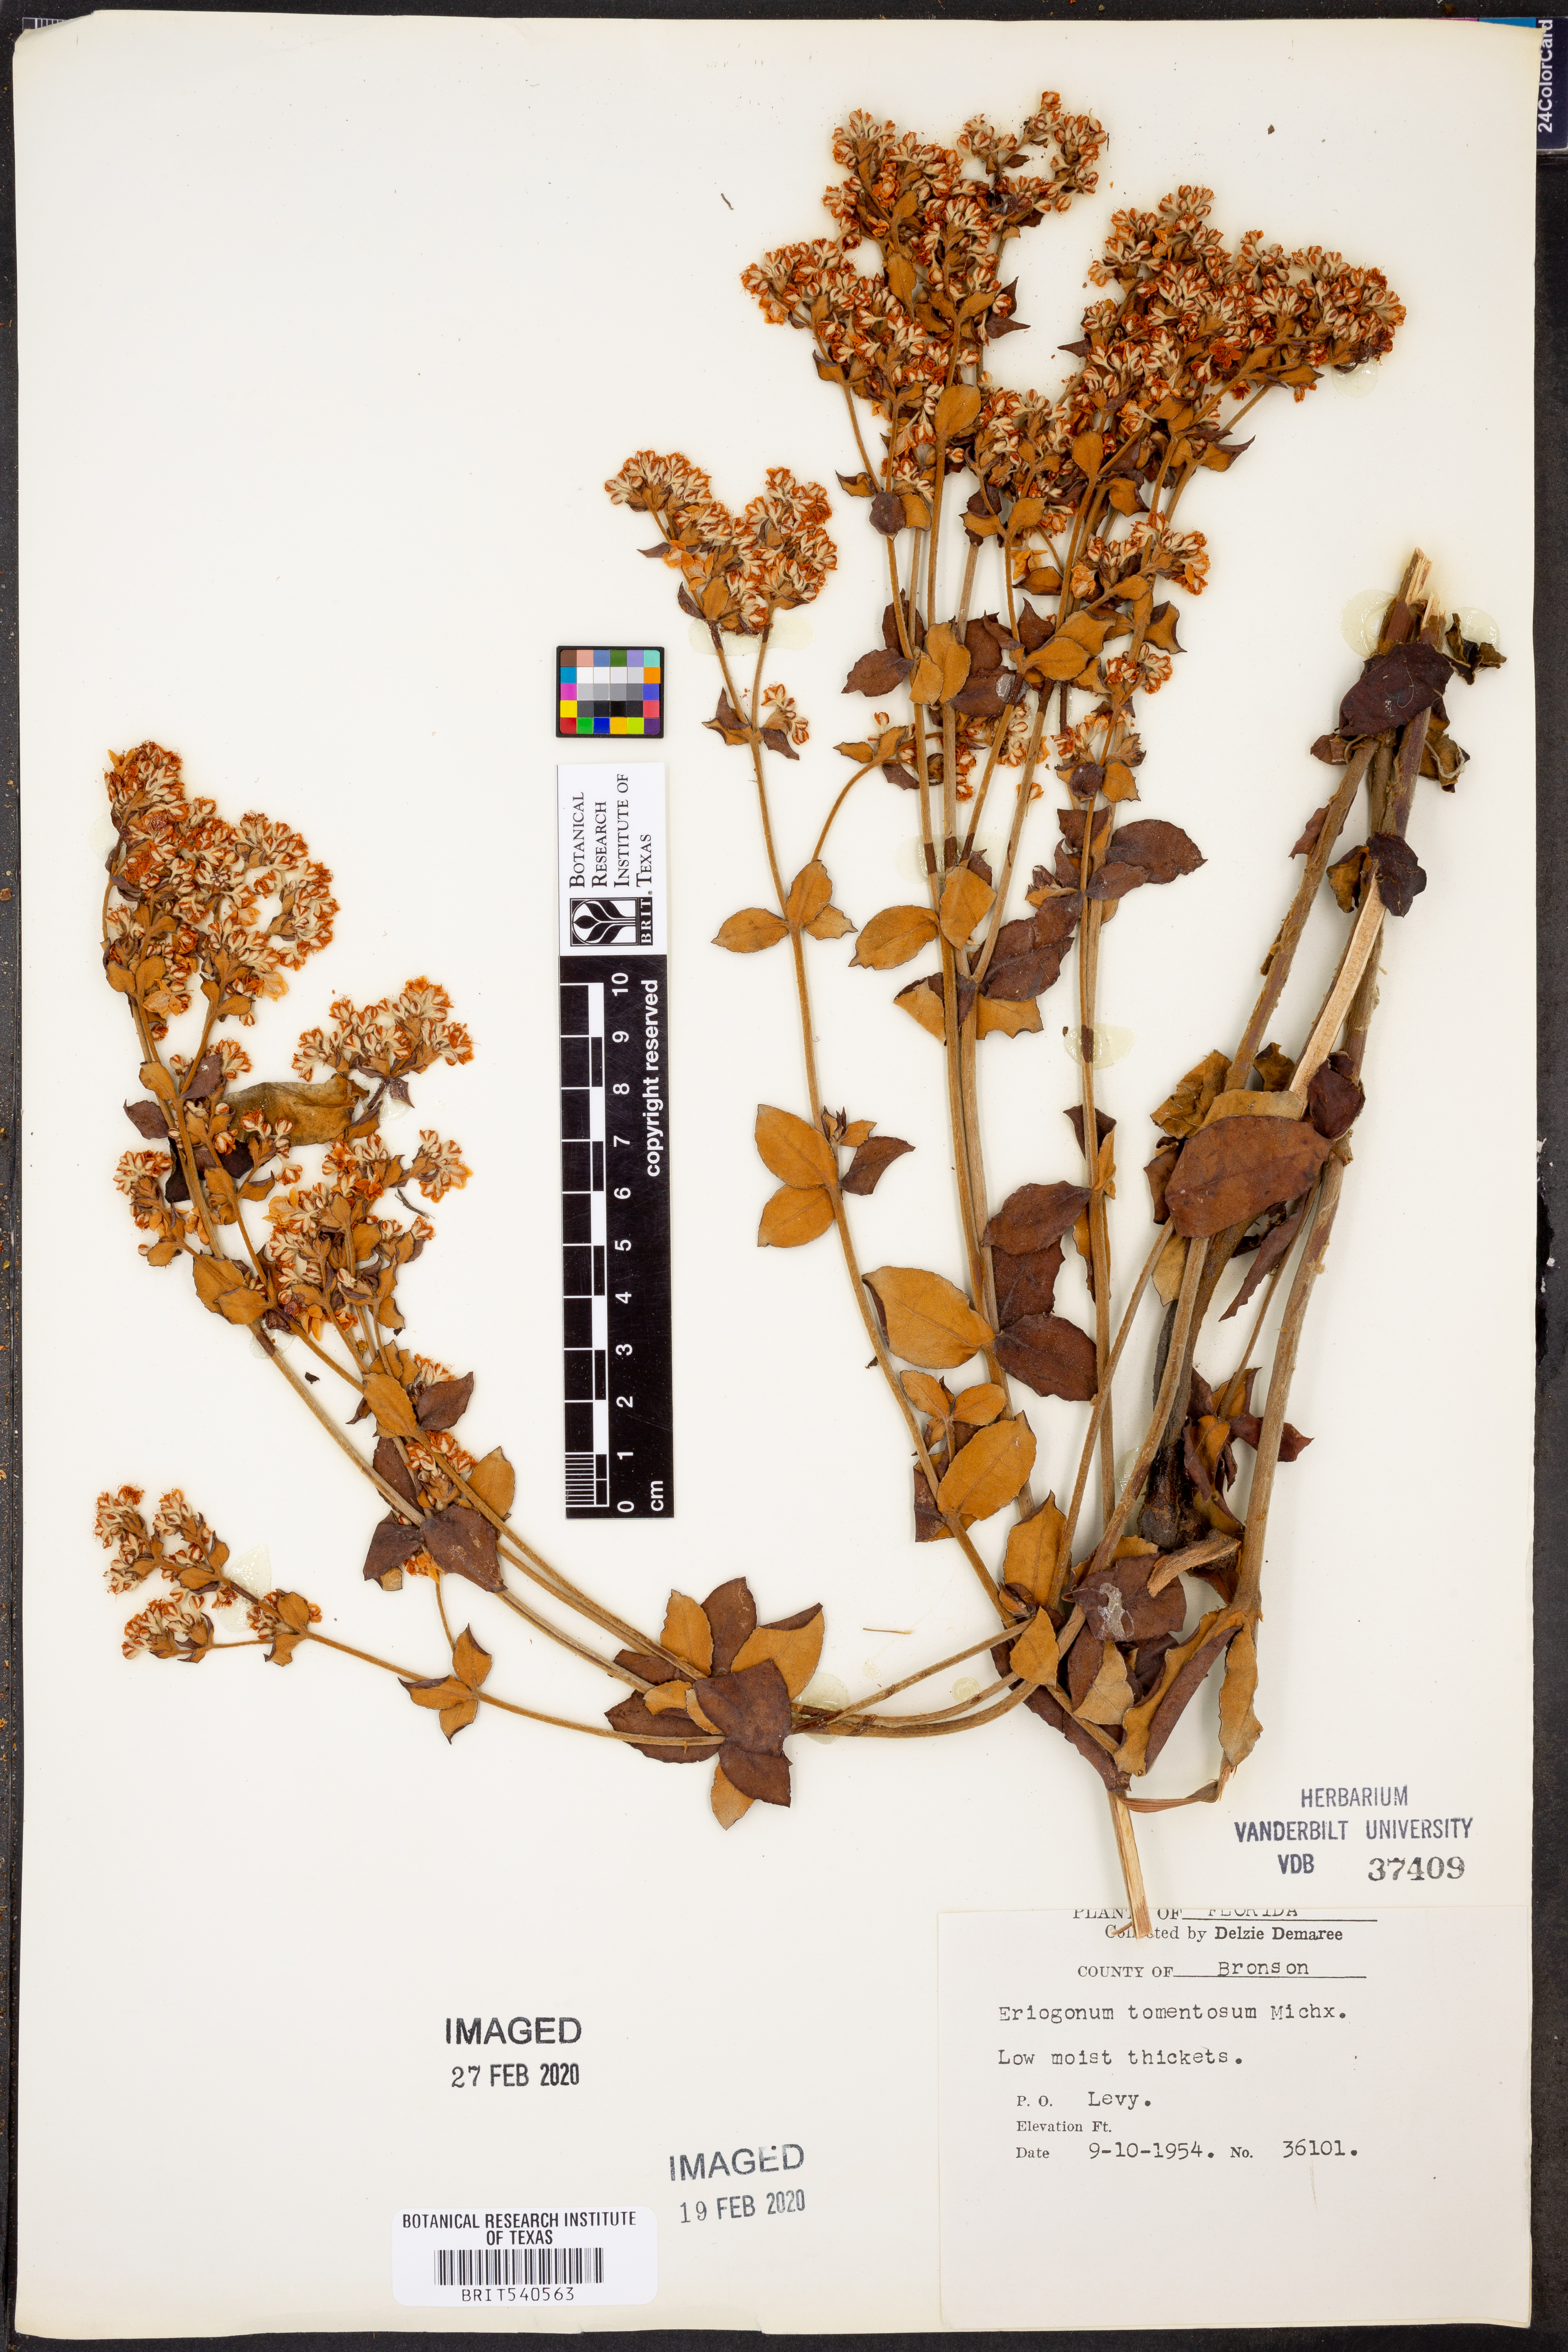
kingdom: Plantae
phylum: Tracheophyta
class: Magnoliopsida
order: Caryophyllales
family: Polygonaceae
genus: Eriogonum
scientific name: Eriogonum tomentosum
